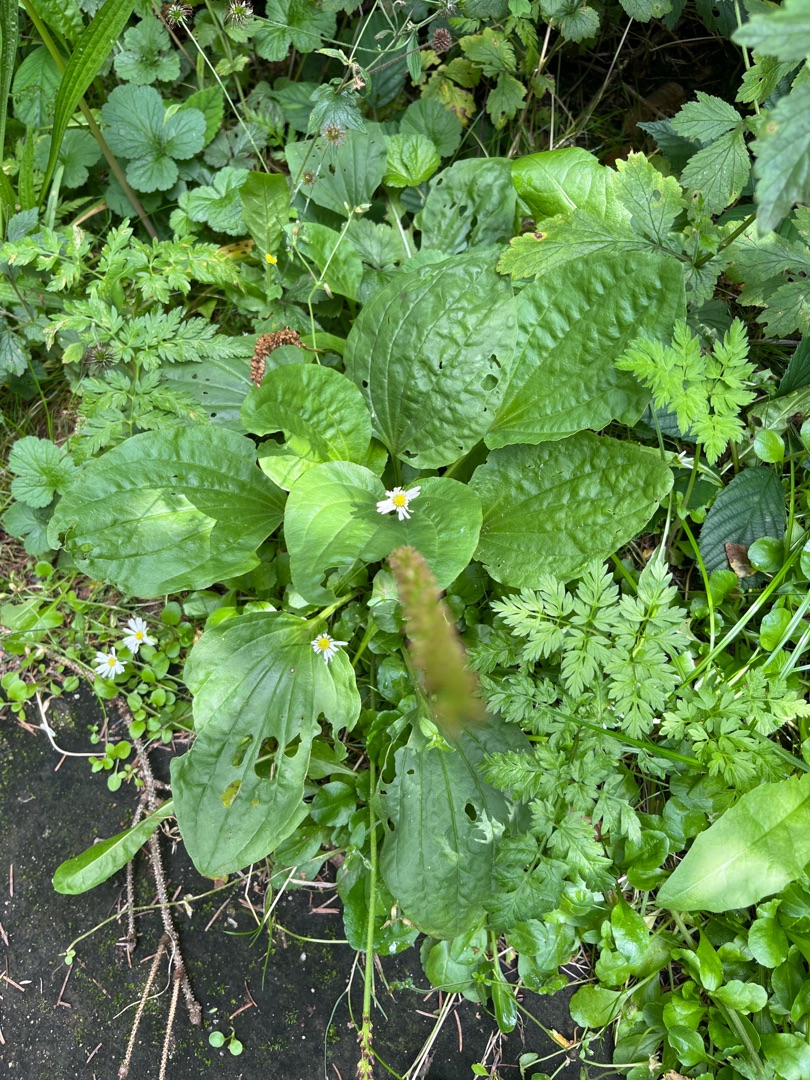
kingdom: Plantae
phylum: Tracheophyta
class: Magnoliopsida
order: Lamiales
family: Plantaginaceae
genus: Plantago
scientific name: Plantago major
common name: Glat vejbred
